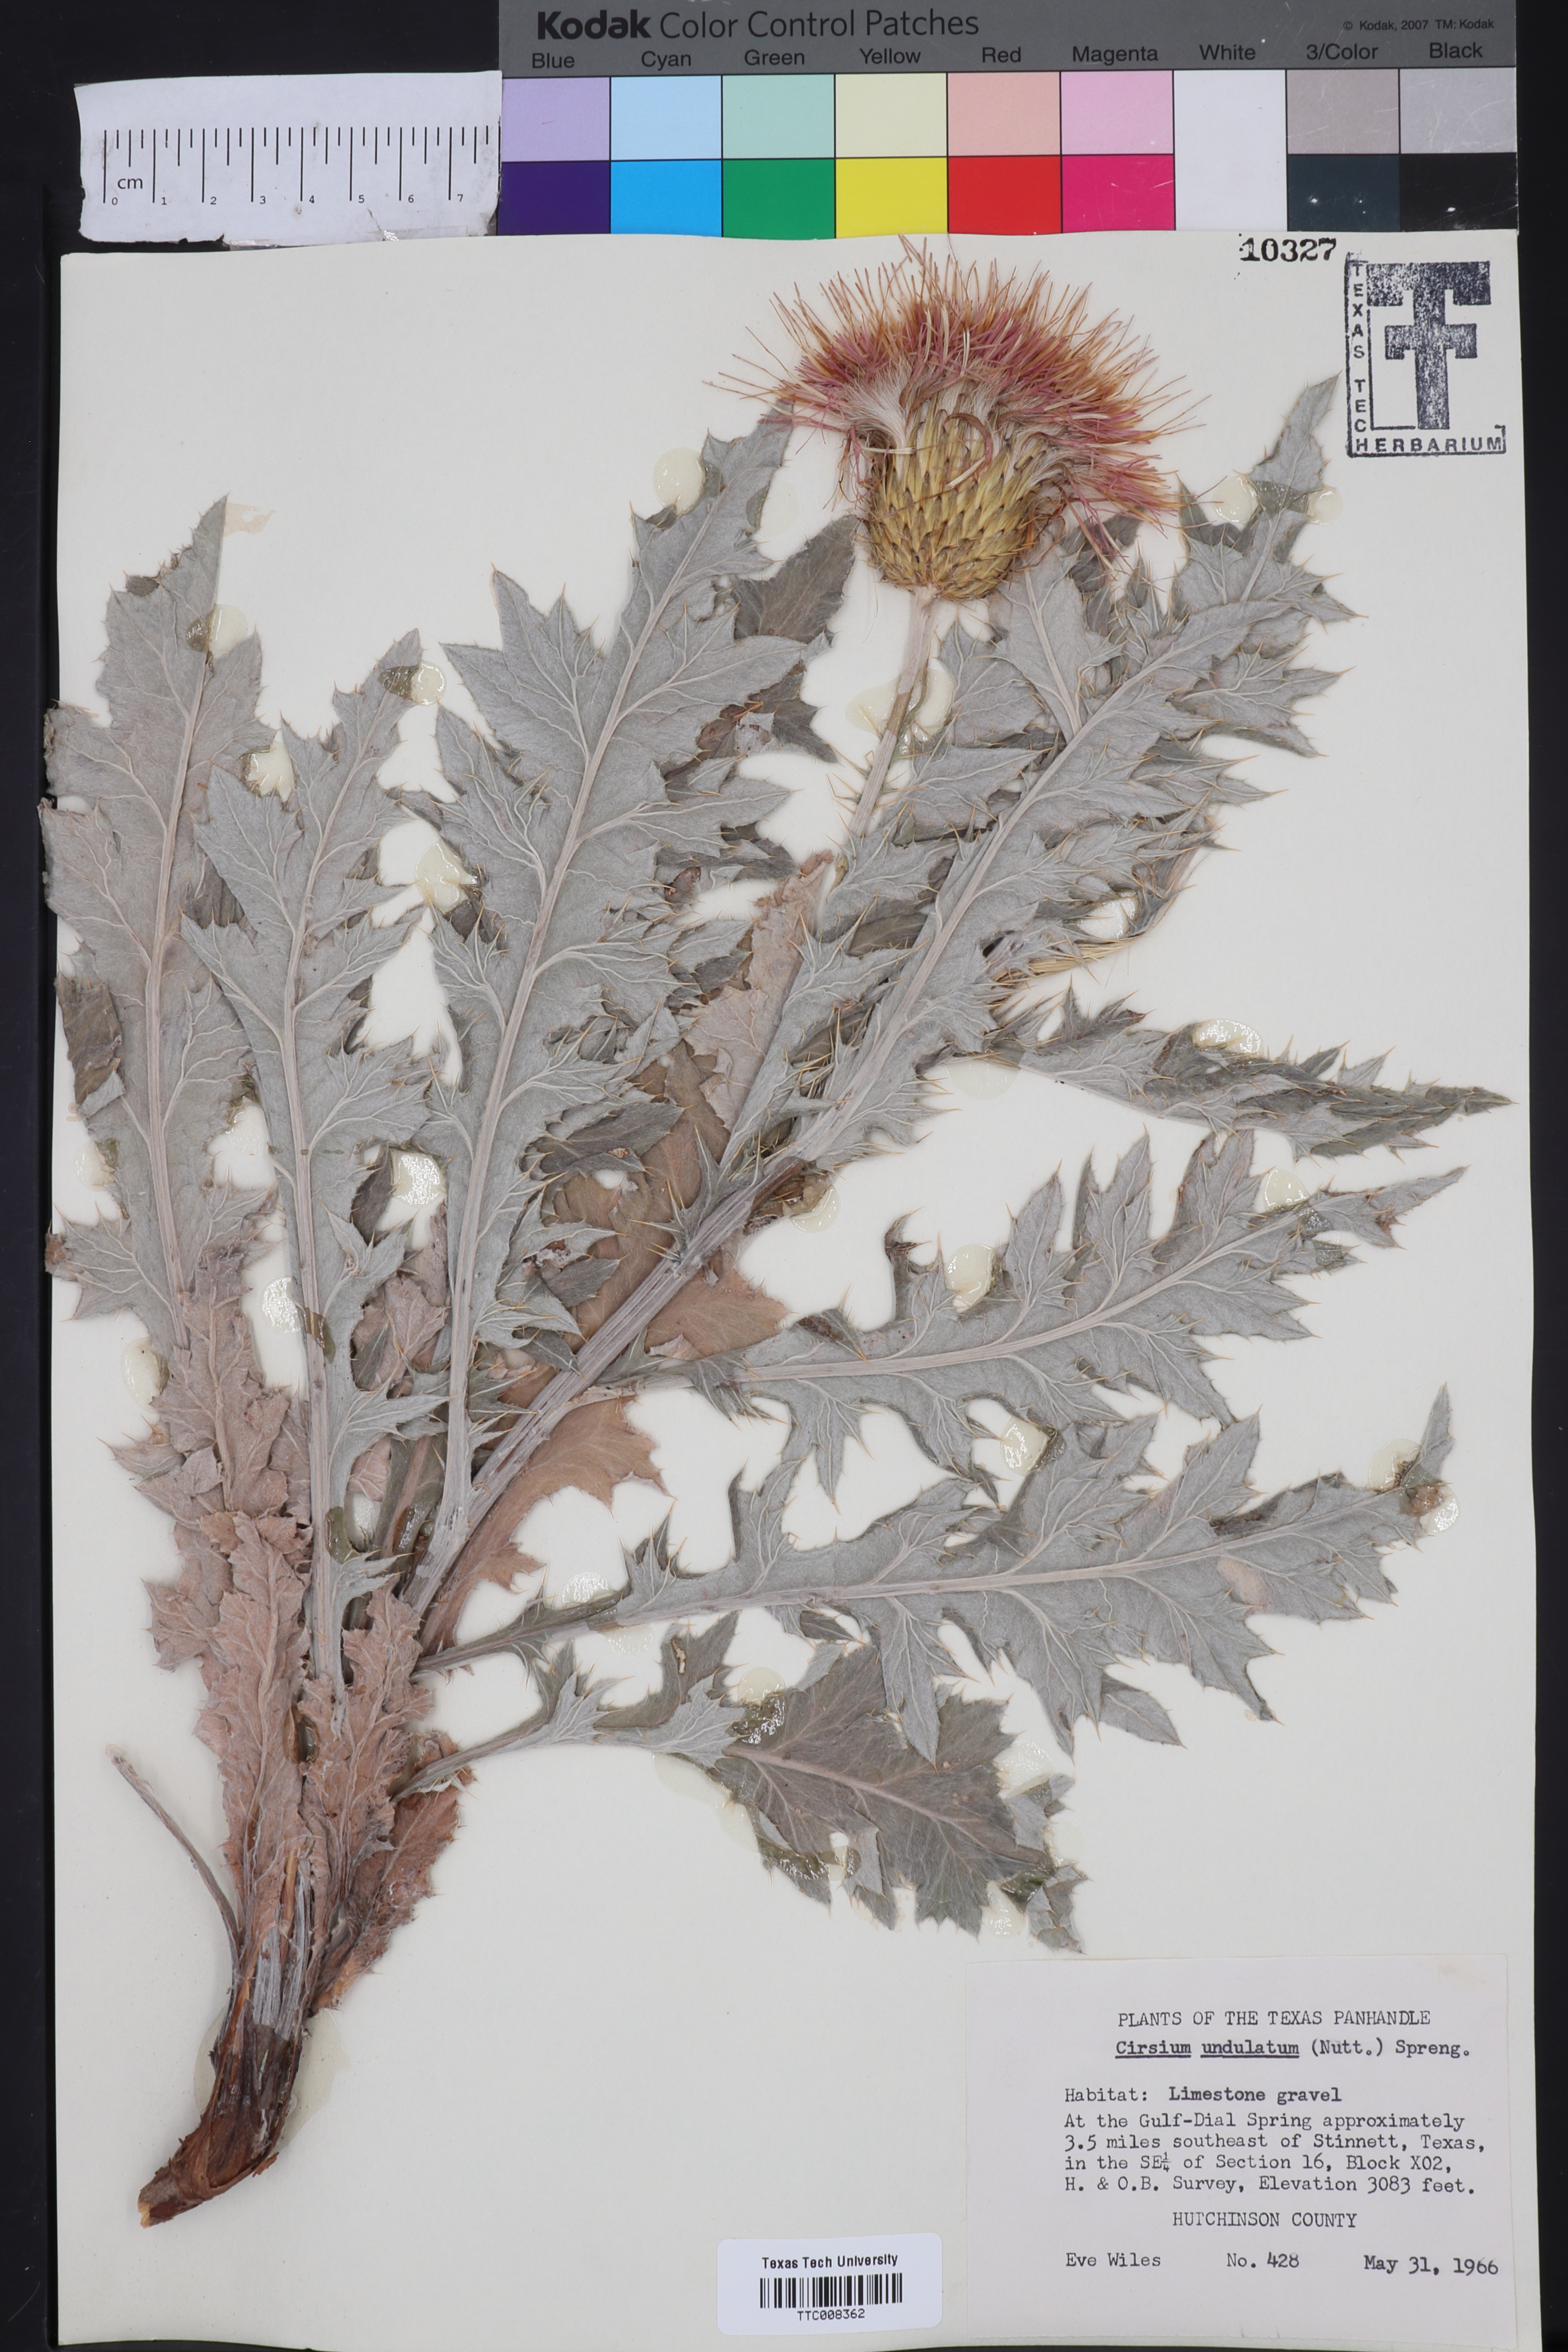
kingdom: Plantae
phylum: Tracheophyta
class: Magnoliopsida
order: Asterales
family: Asteraceae
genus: Cirsium
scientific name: Cirsium undulatum
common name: Pasture thistle
